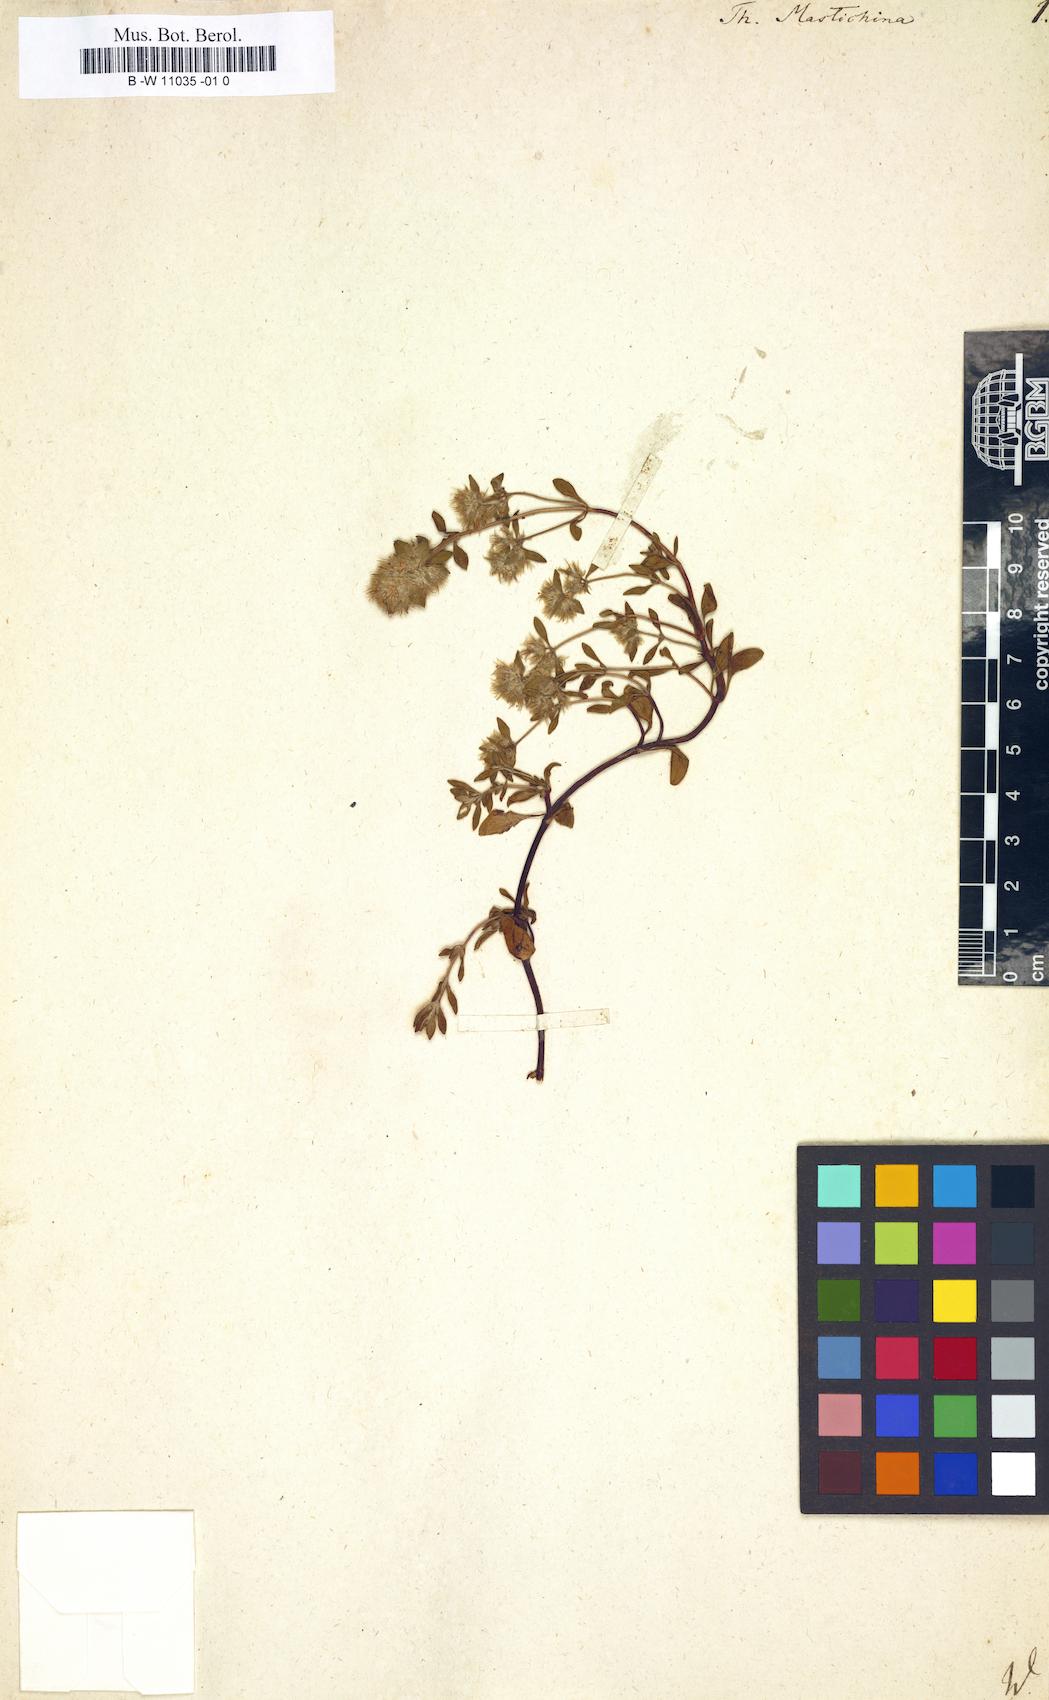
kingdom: Plantae
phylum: Tracheophyta
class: Magnoliopsida
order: Lamiales
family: Lamiaceae
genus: Thymus
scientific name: Thymus mastichina
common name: Mastic thyme
